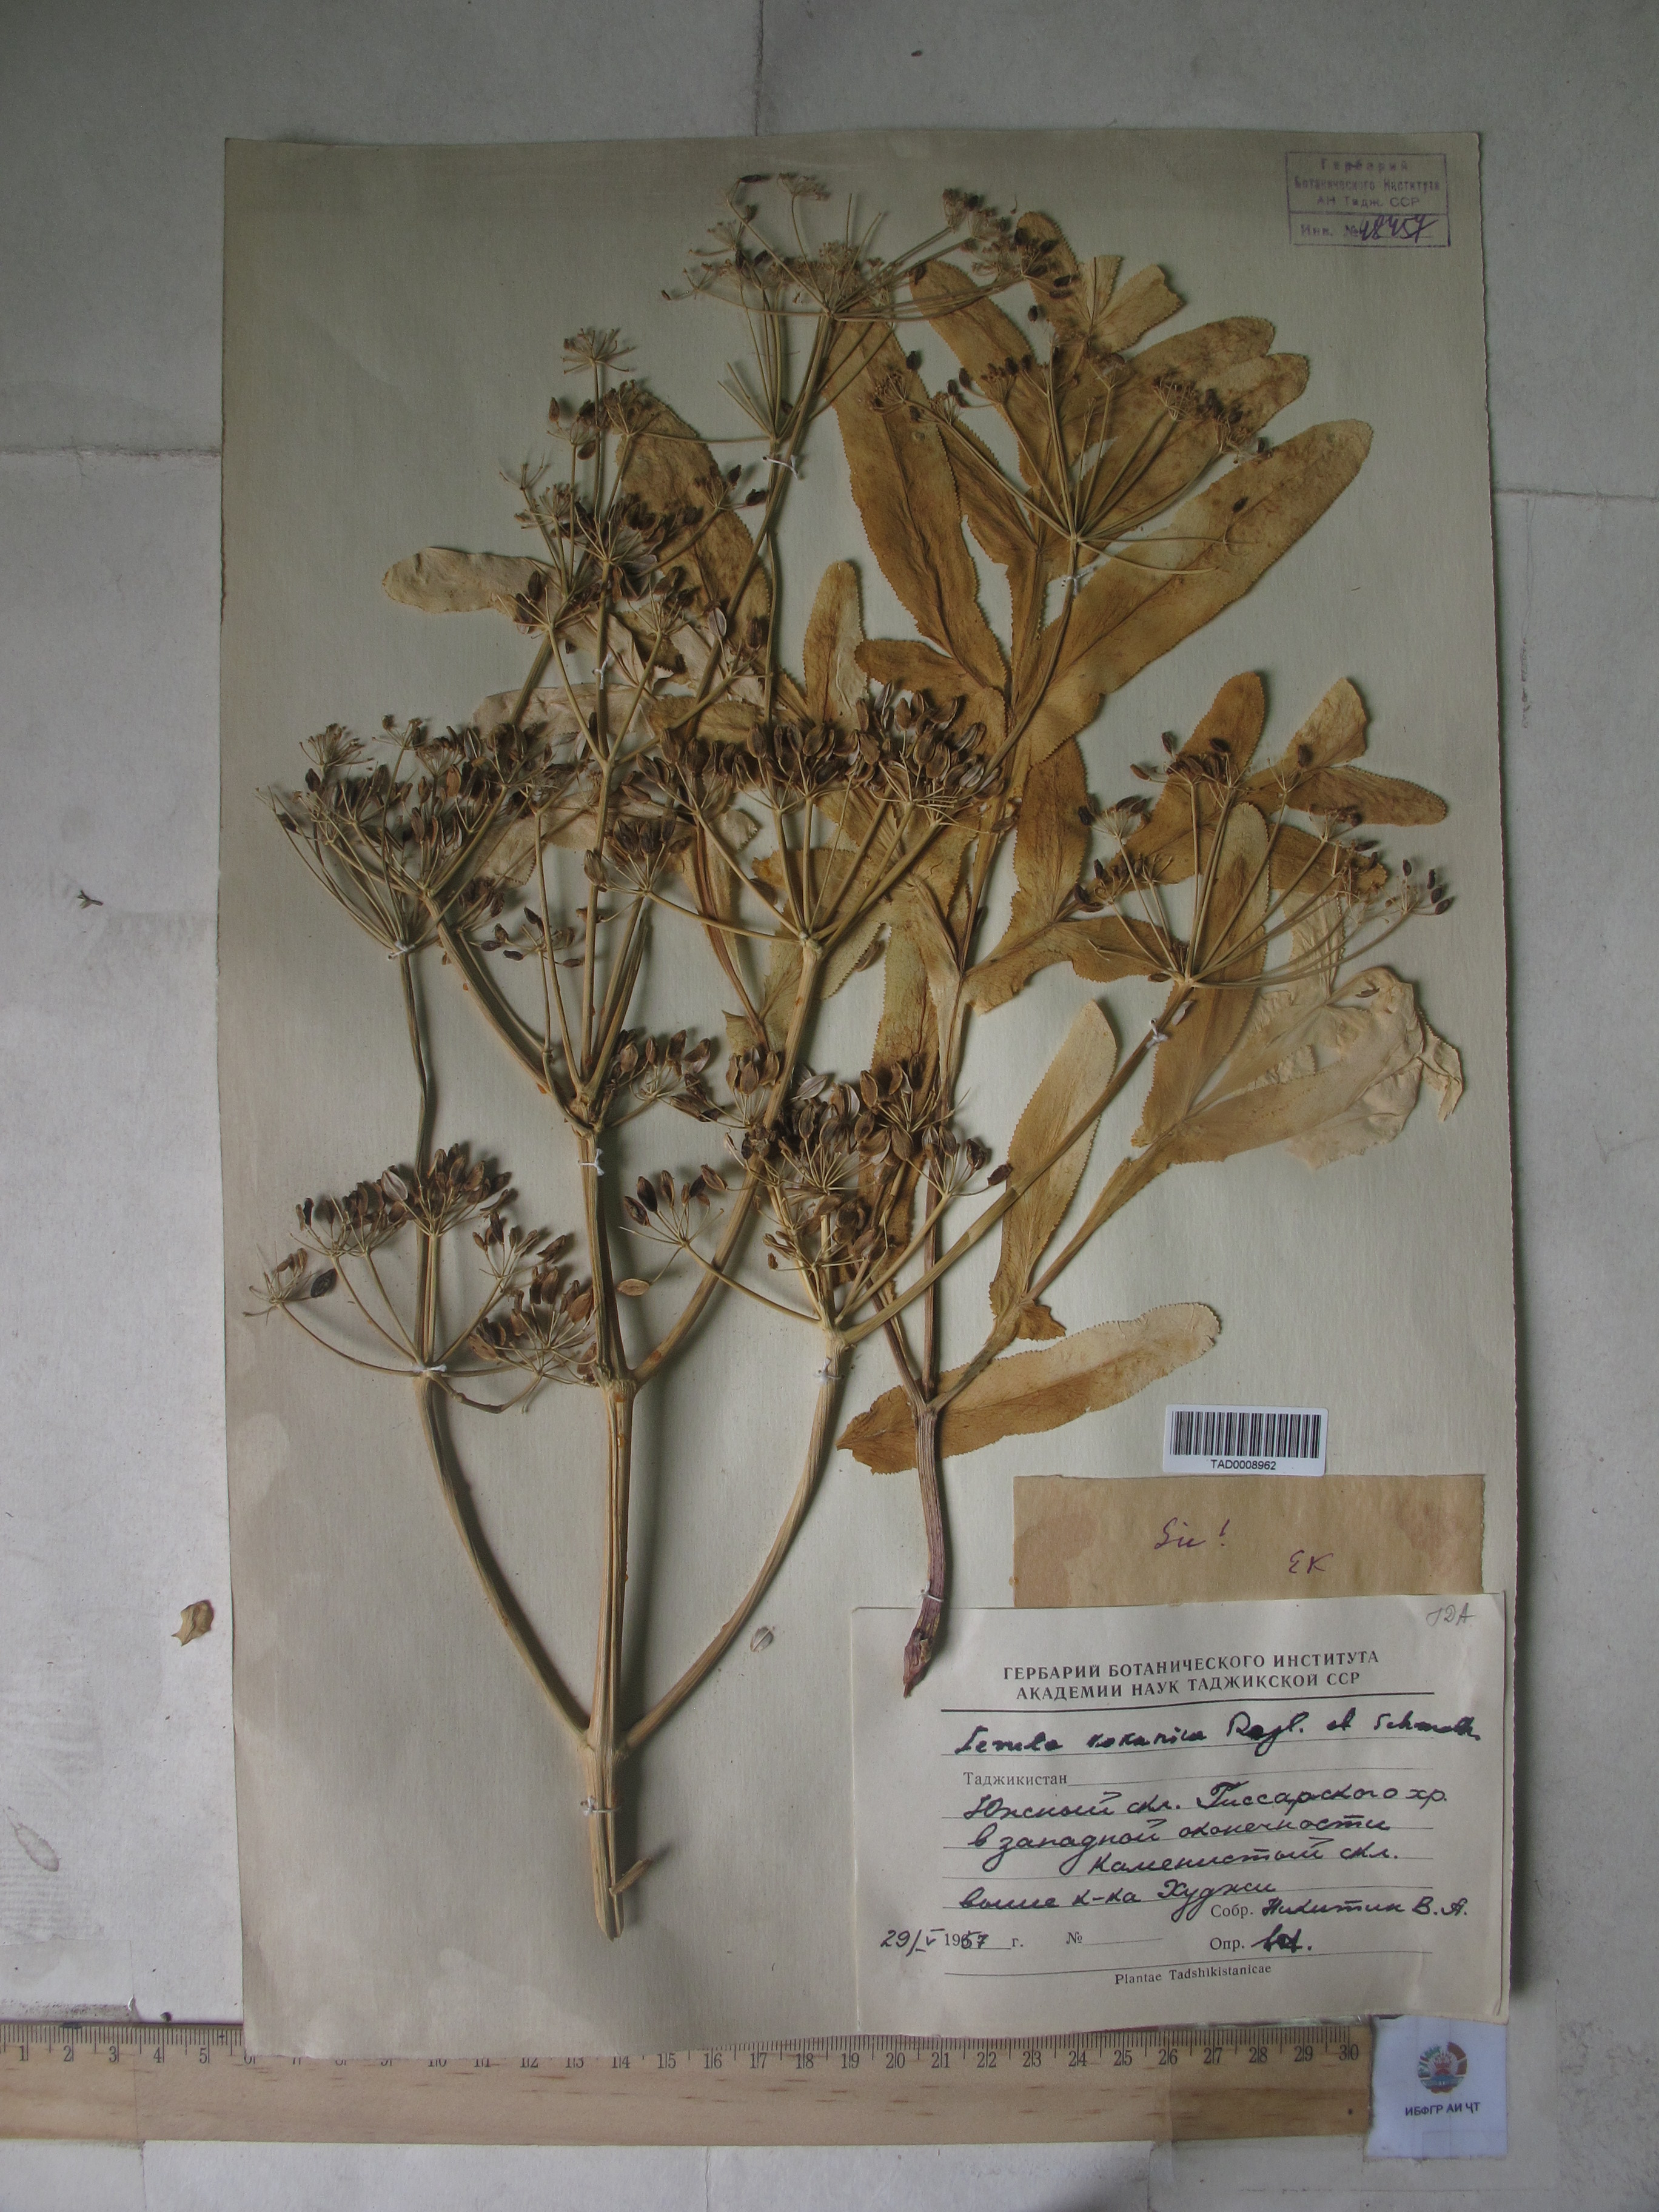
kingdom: Plantae
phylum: Tracheophyta
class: Magnoliopsida
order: Apiales
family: Apiaceae
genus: Ferula
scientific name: Ferula kokanica
